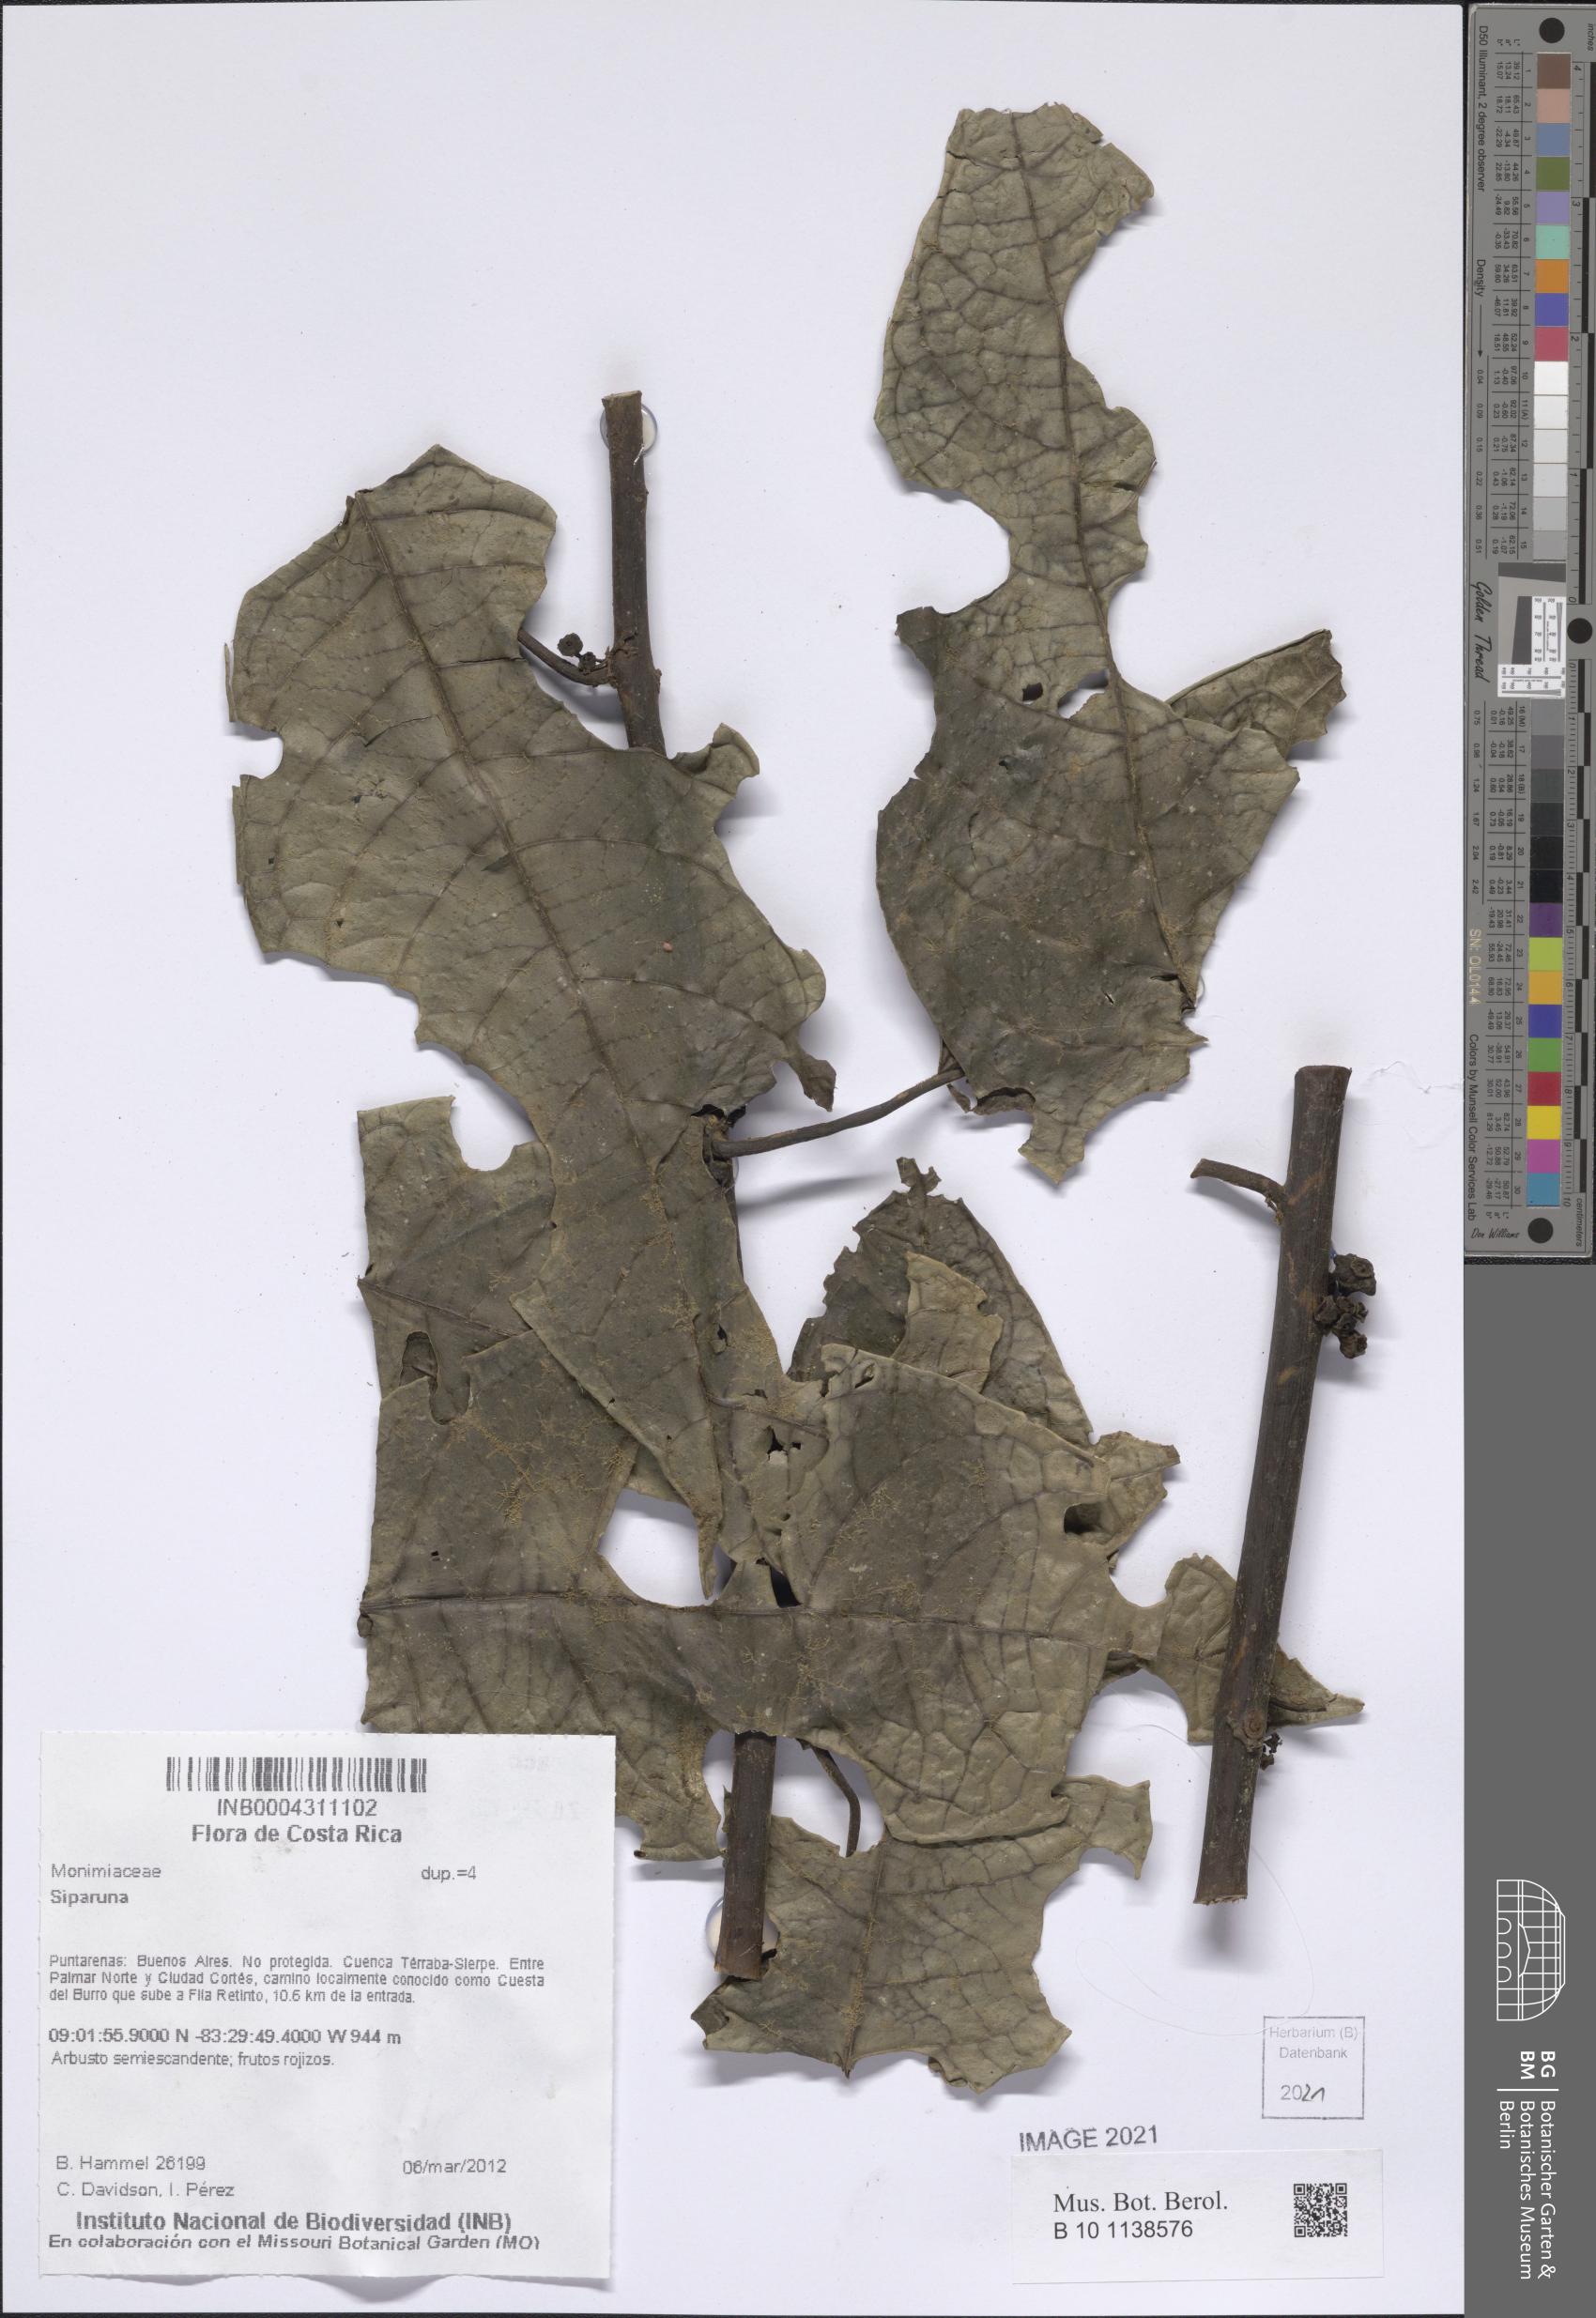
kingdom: Plantae
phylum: Tracheophyta
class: Magnoliopsida
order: Laurales
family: Siparunaceae
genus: Siparuna
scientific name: Siparuna
